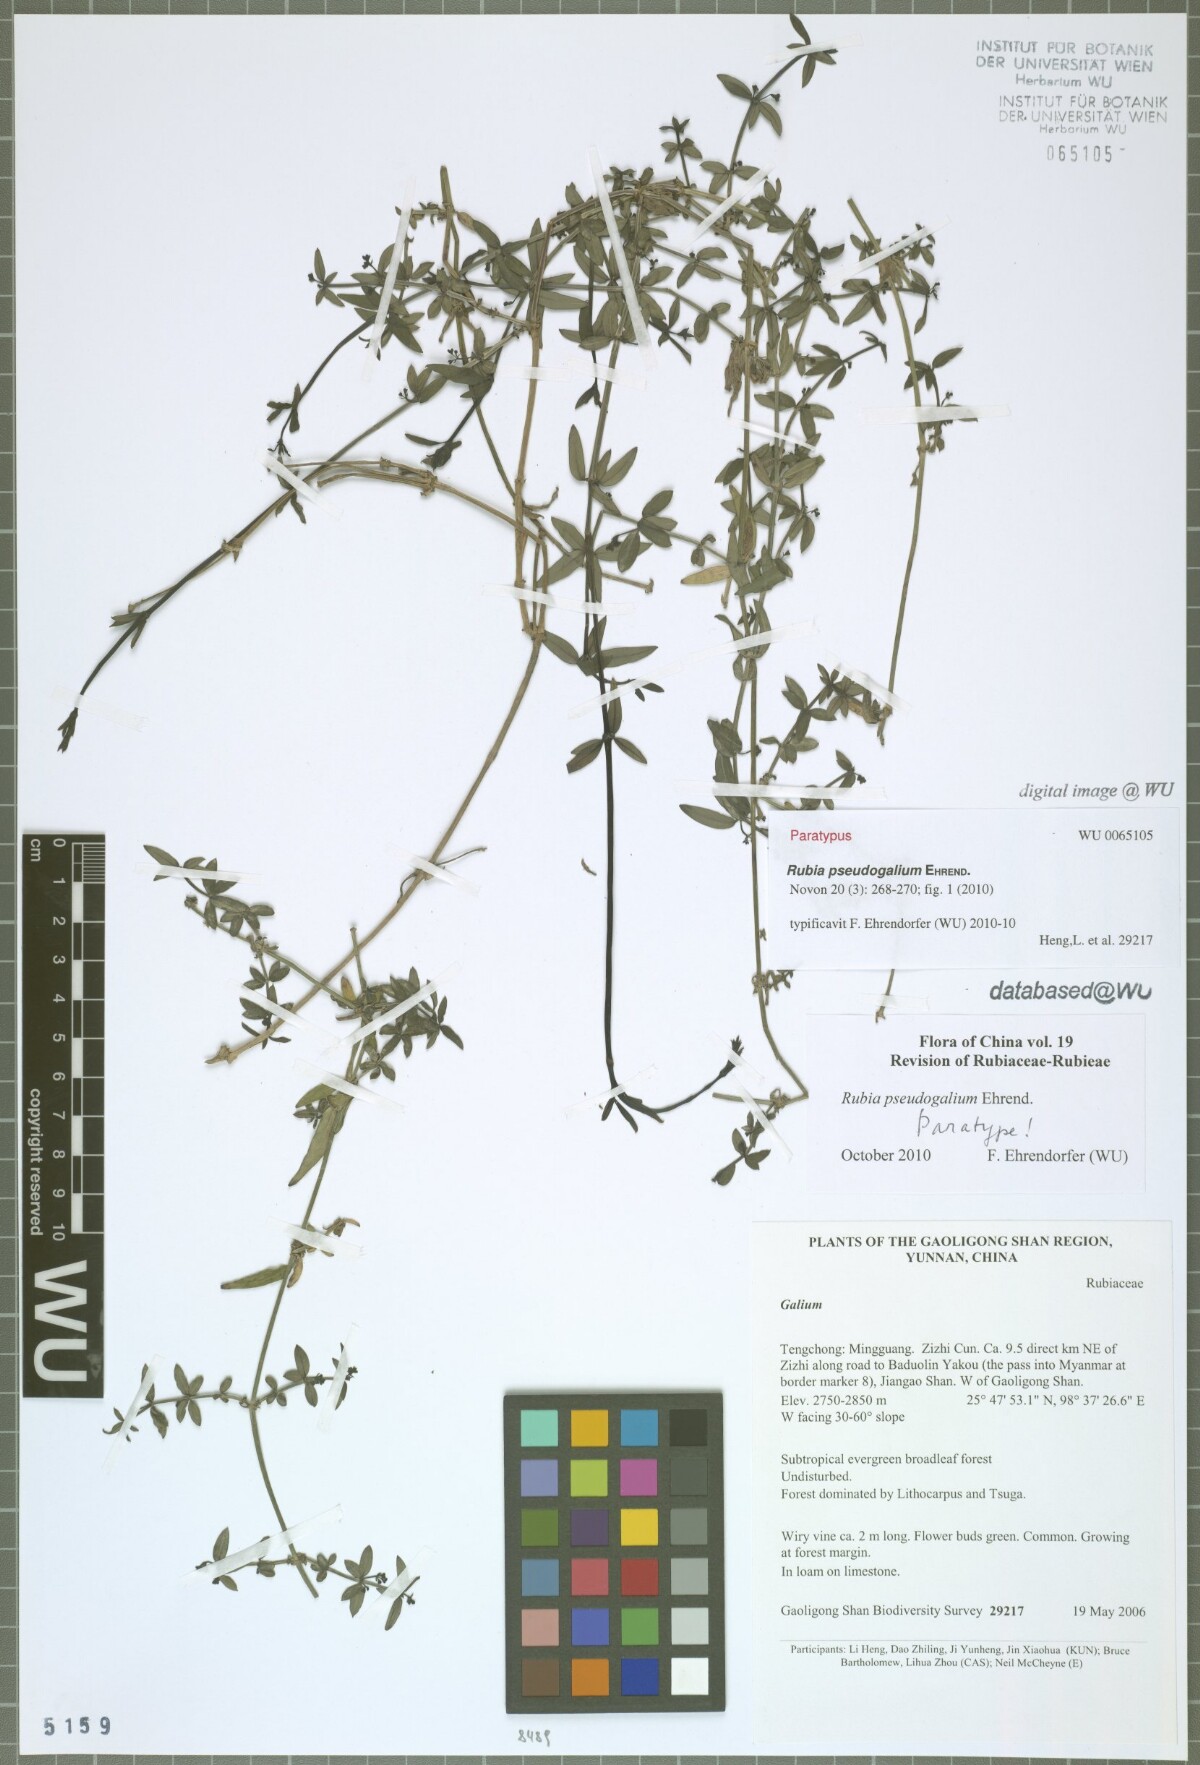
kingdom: Plantae
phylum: Tracheophyta
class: Magnoliopsida
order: Gentianales
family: Rubiaceae
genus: Rubia
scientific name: Rubia pseudogalium
